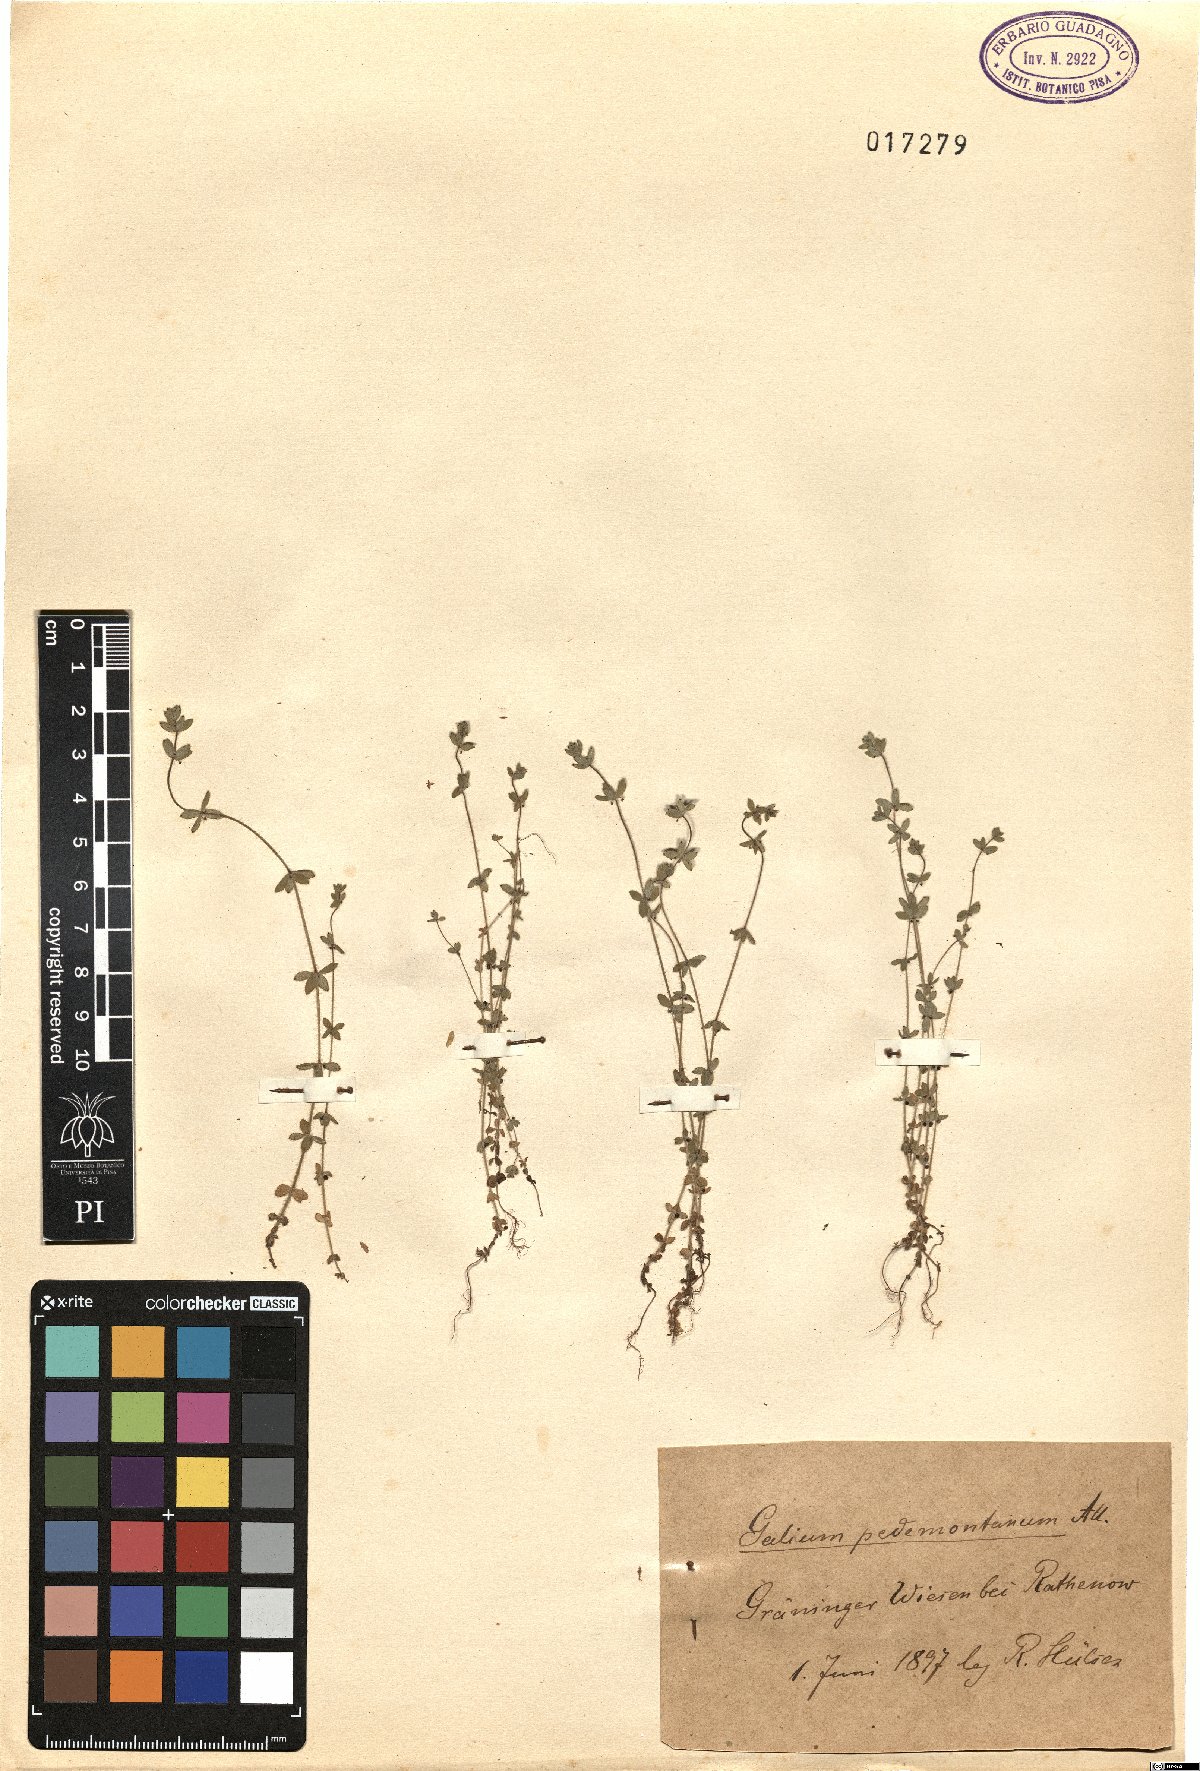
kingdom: Plantae
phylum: Tracheophyta
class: Magnoliopsida
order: Gentianales
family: Rubiaceae
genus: Cruciata
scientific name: Cruciata pedemontana
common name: Piedmont bedstraw
